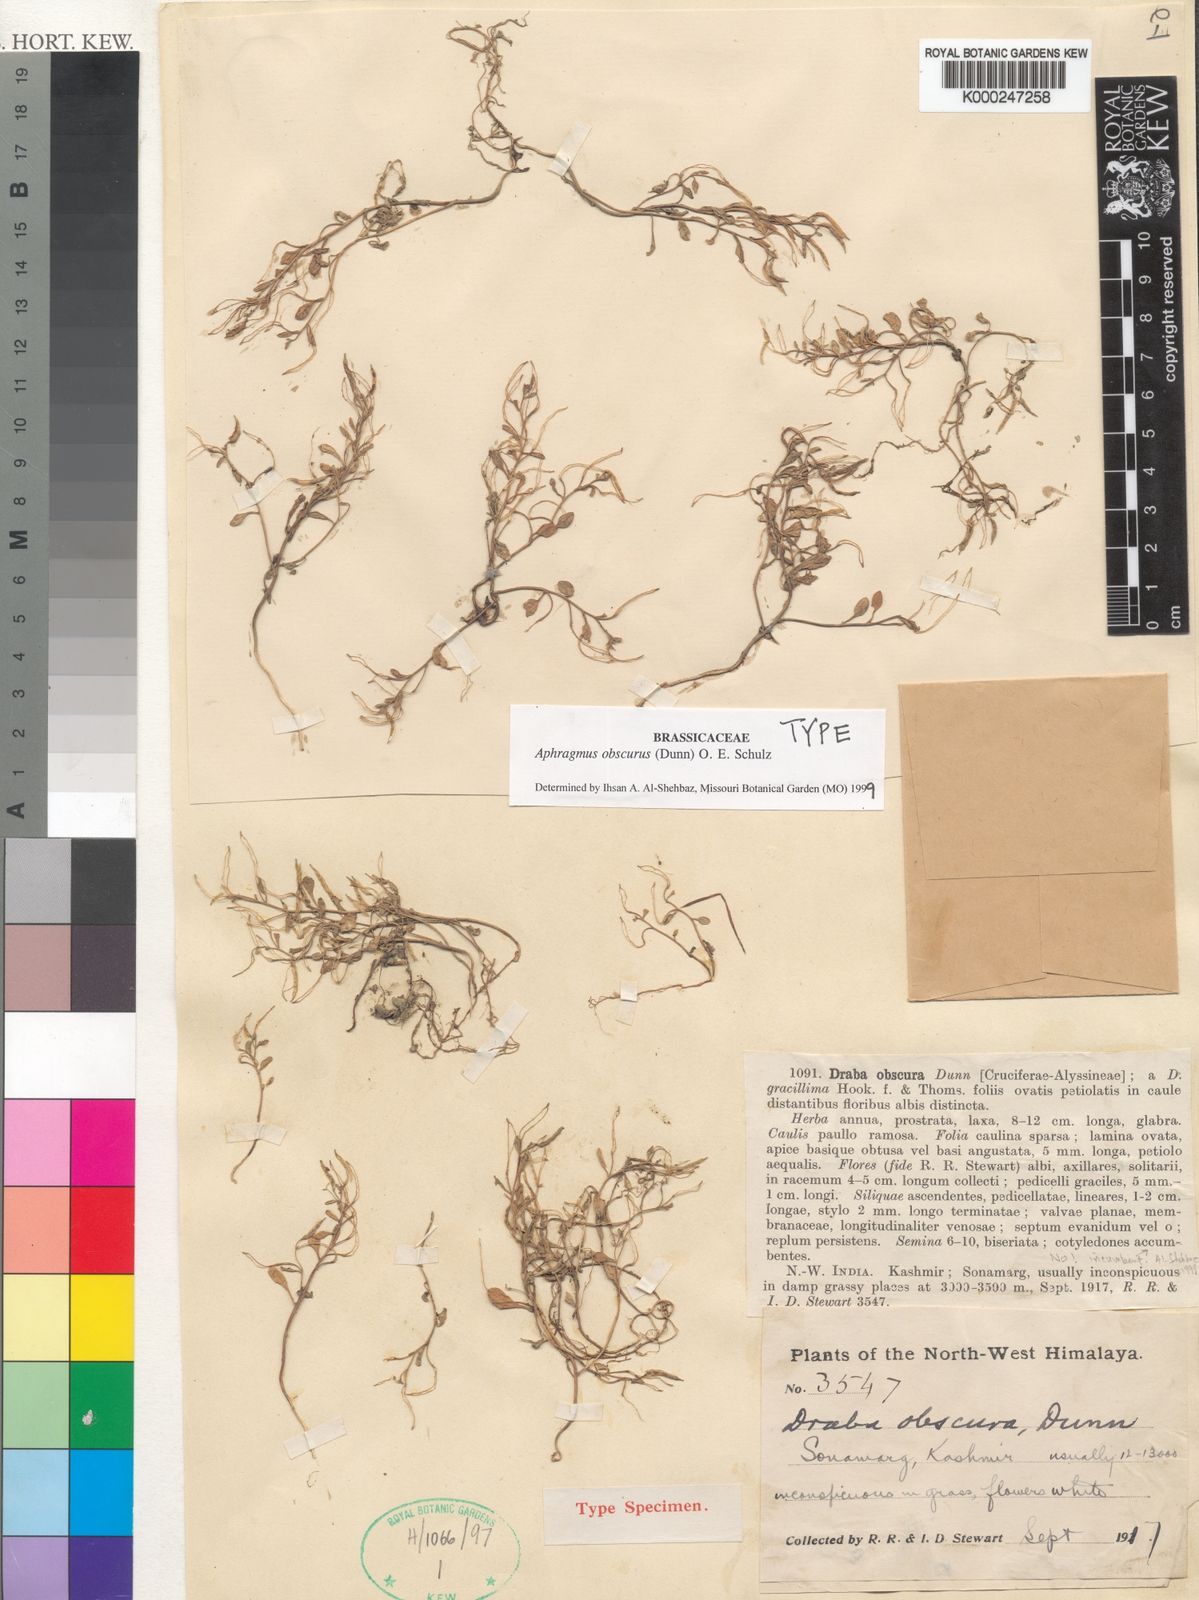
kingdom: Plantae
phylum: Tracheophyta
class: Magnoliopsida
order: Brassicales
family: Brassicaceae
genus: Aphragmus
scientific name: Aphragmus obscurus
